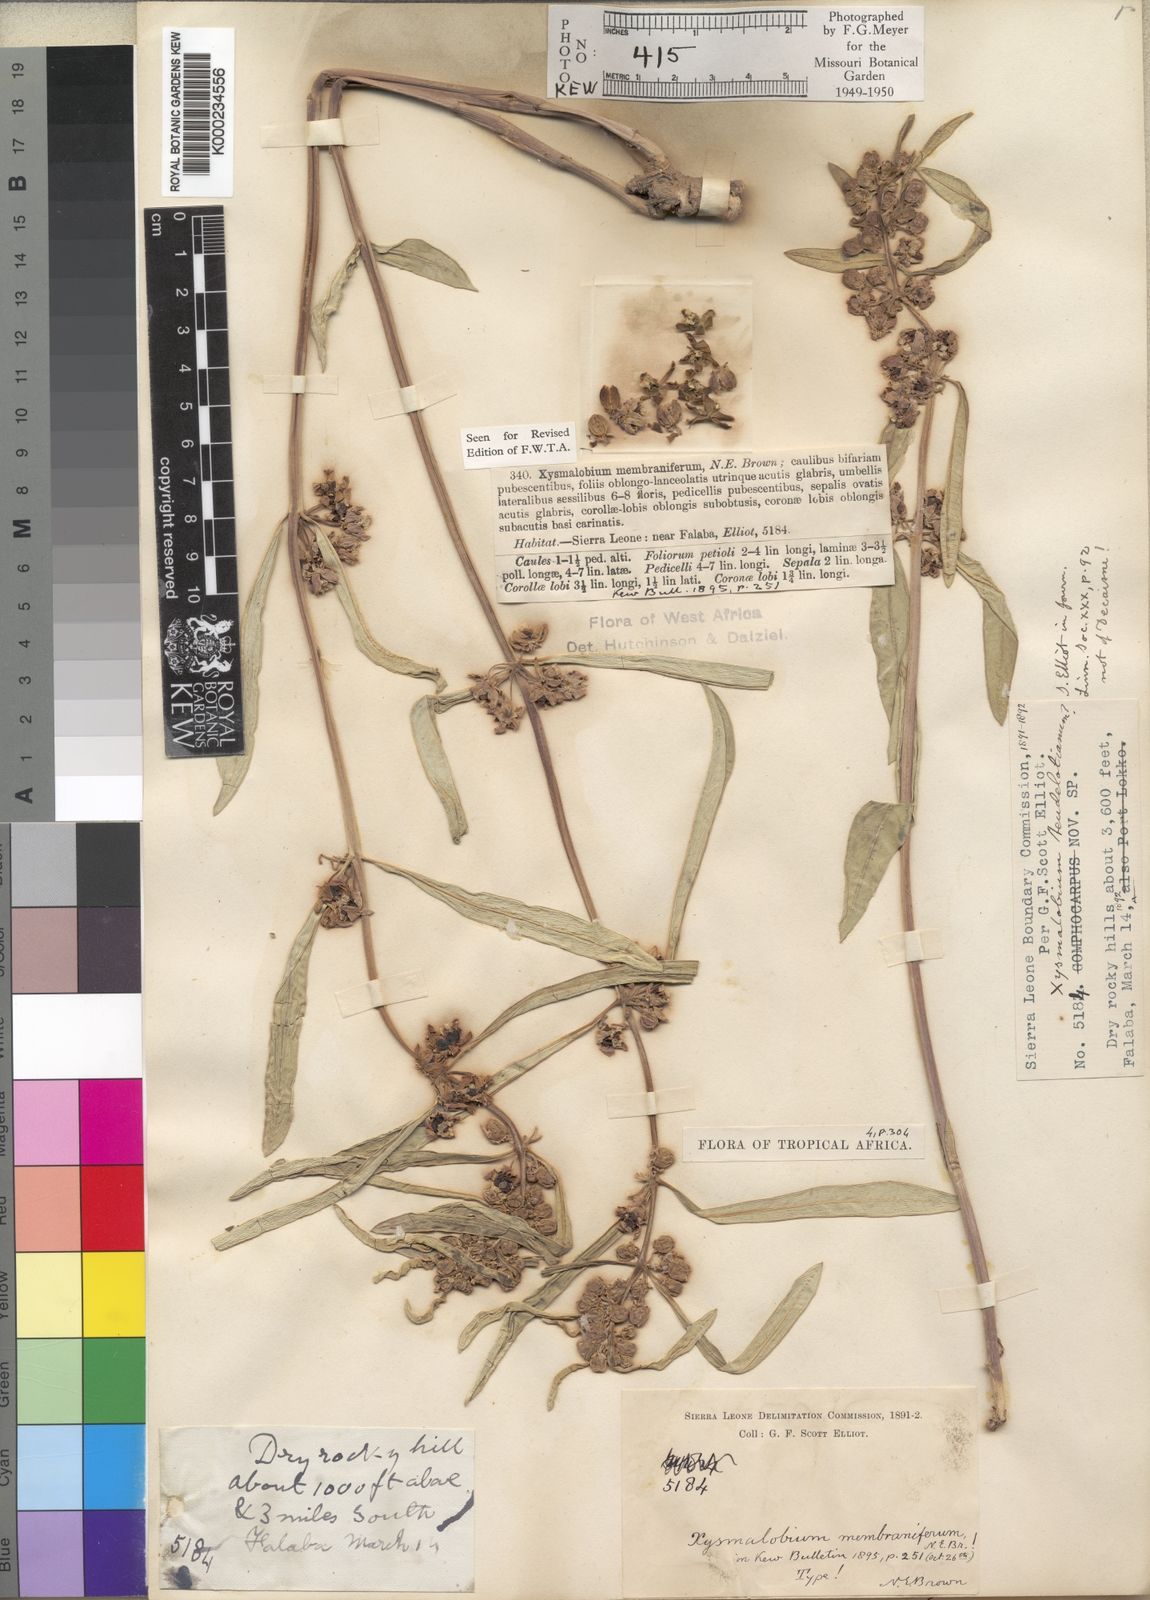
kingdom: Plantae
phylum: Tracheophyta
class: Magnoliopsida
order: Gentianales
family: Apocynaceae
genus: Xysmalobium
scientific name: Xysmalobium heudelotianum
